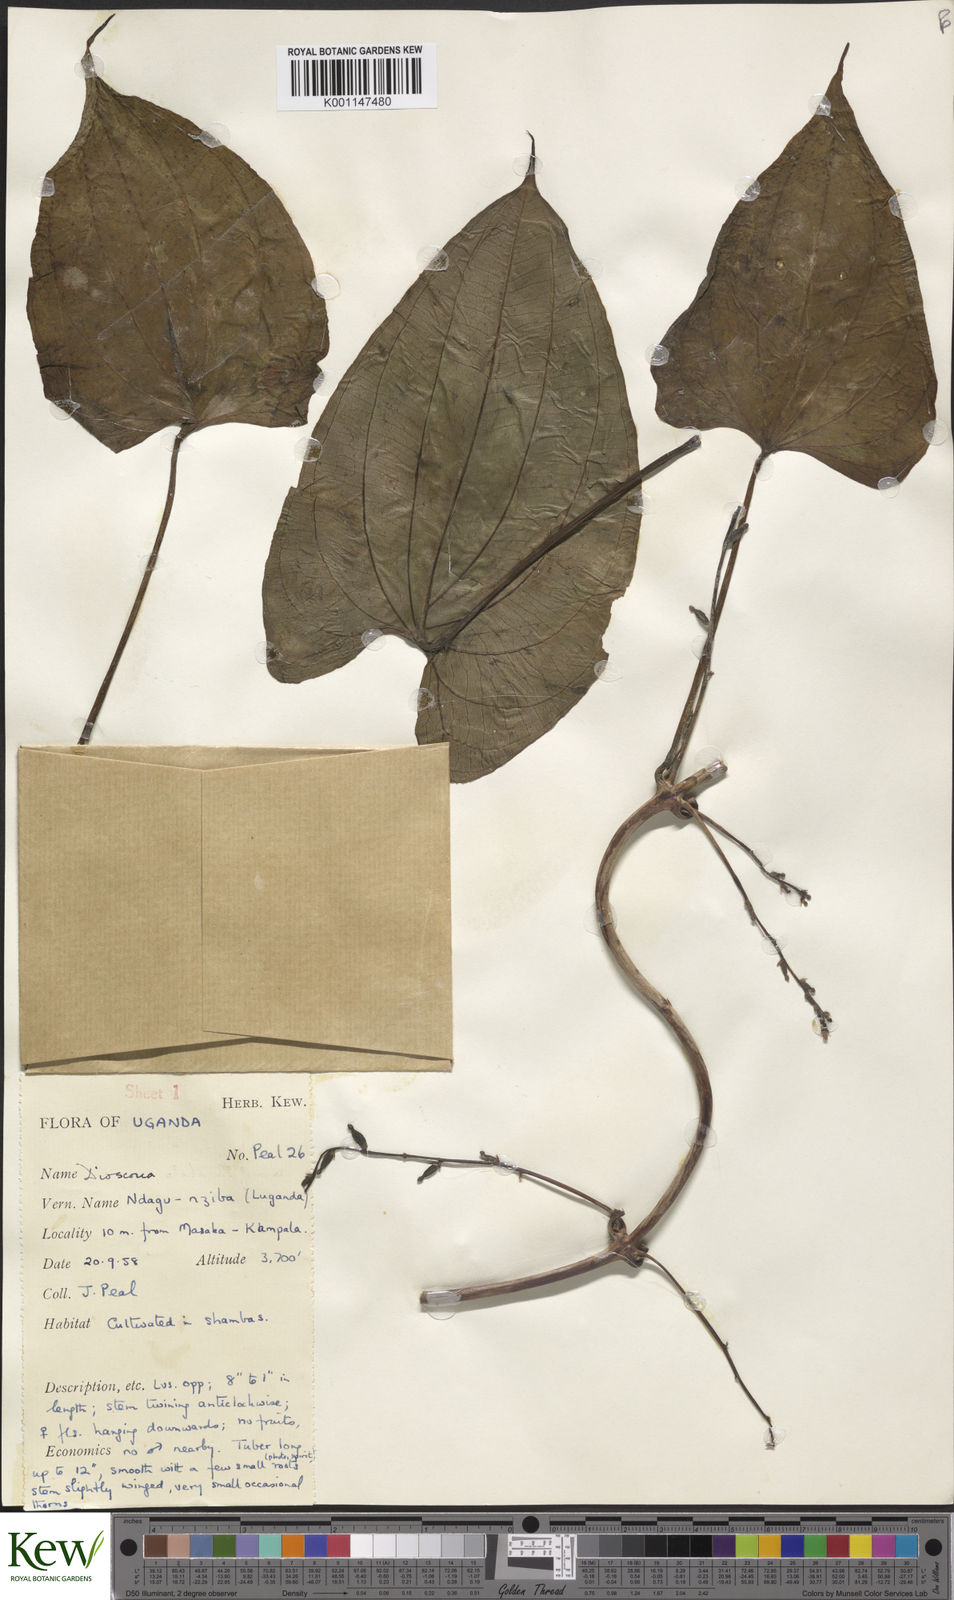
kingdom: Plantae
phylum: Tracheophyta
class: Liliopsida
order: Dioscoreales
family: Dioscoreaceae
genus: Dioscorea
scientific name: Dioscorea
